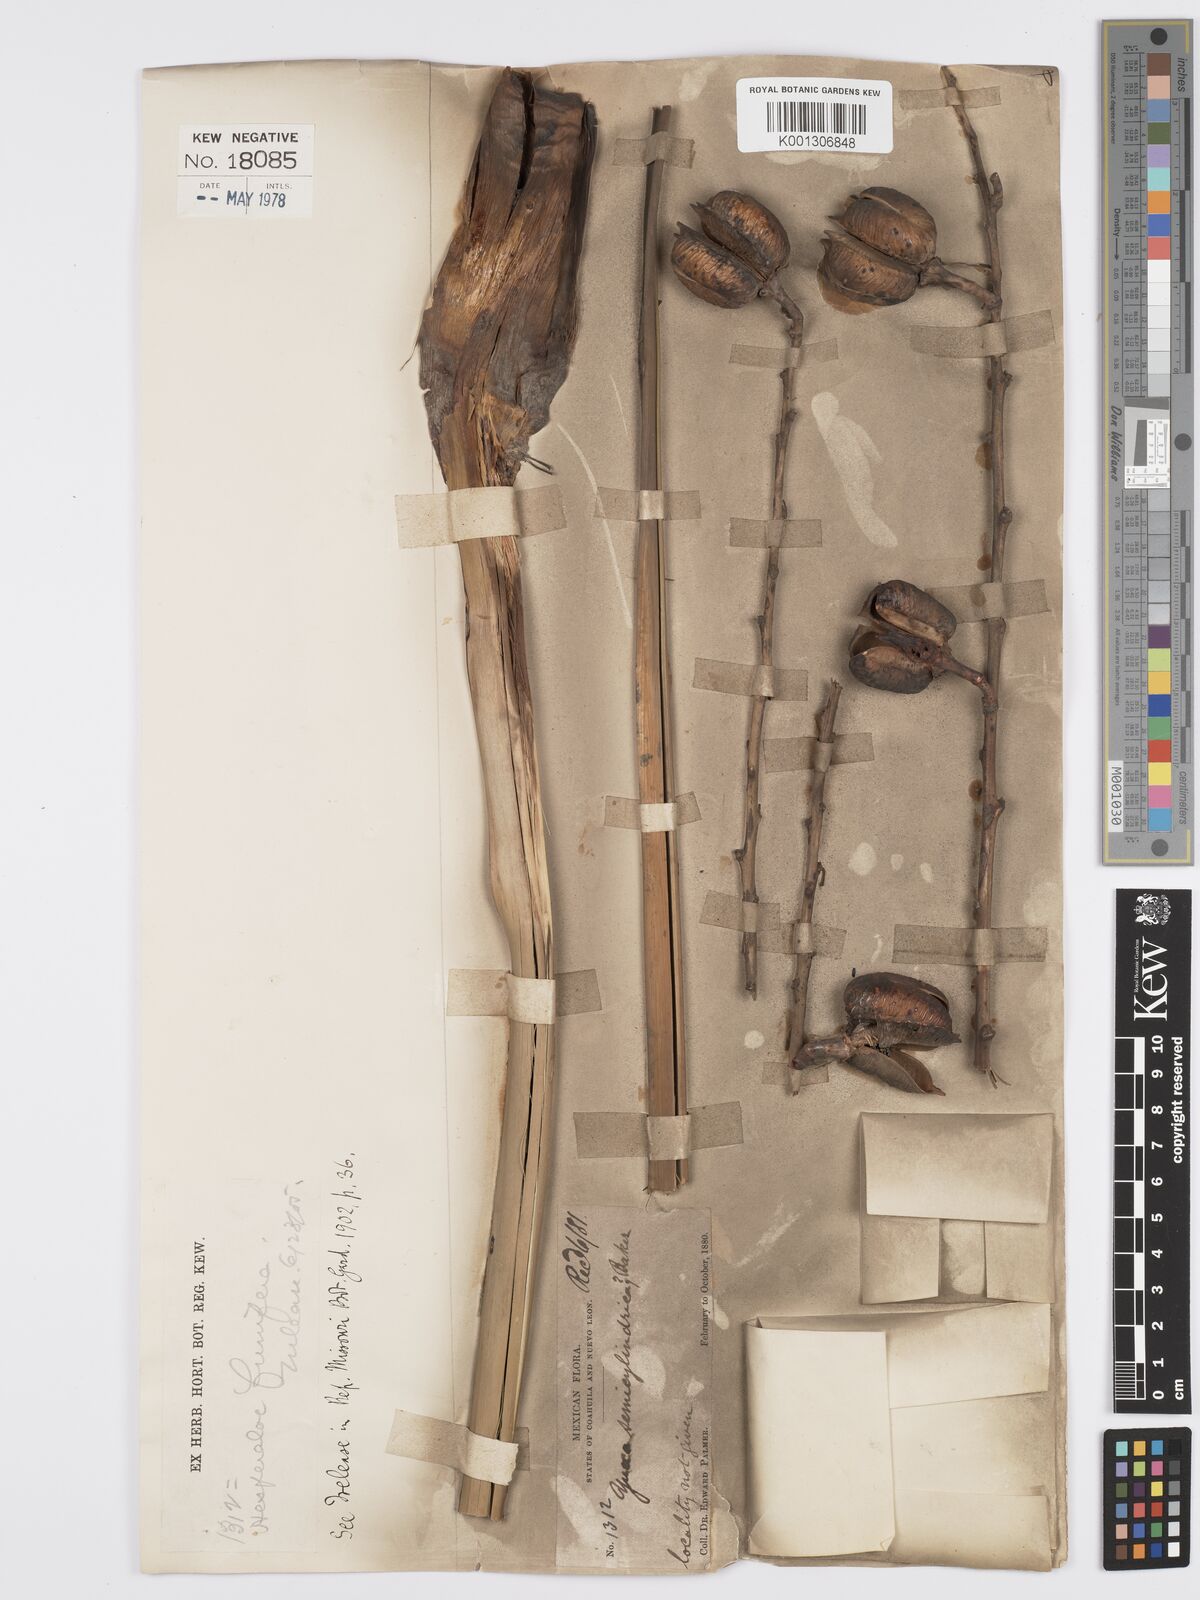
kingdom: Plantae
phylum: Tracheophyta
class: Liliopsida
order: Asparagales
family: Asparagaceae
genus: Hesperaloe
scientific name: Hesperaloe funifera
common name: Giant hesperaloe
